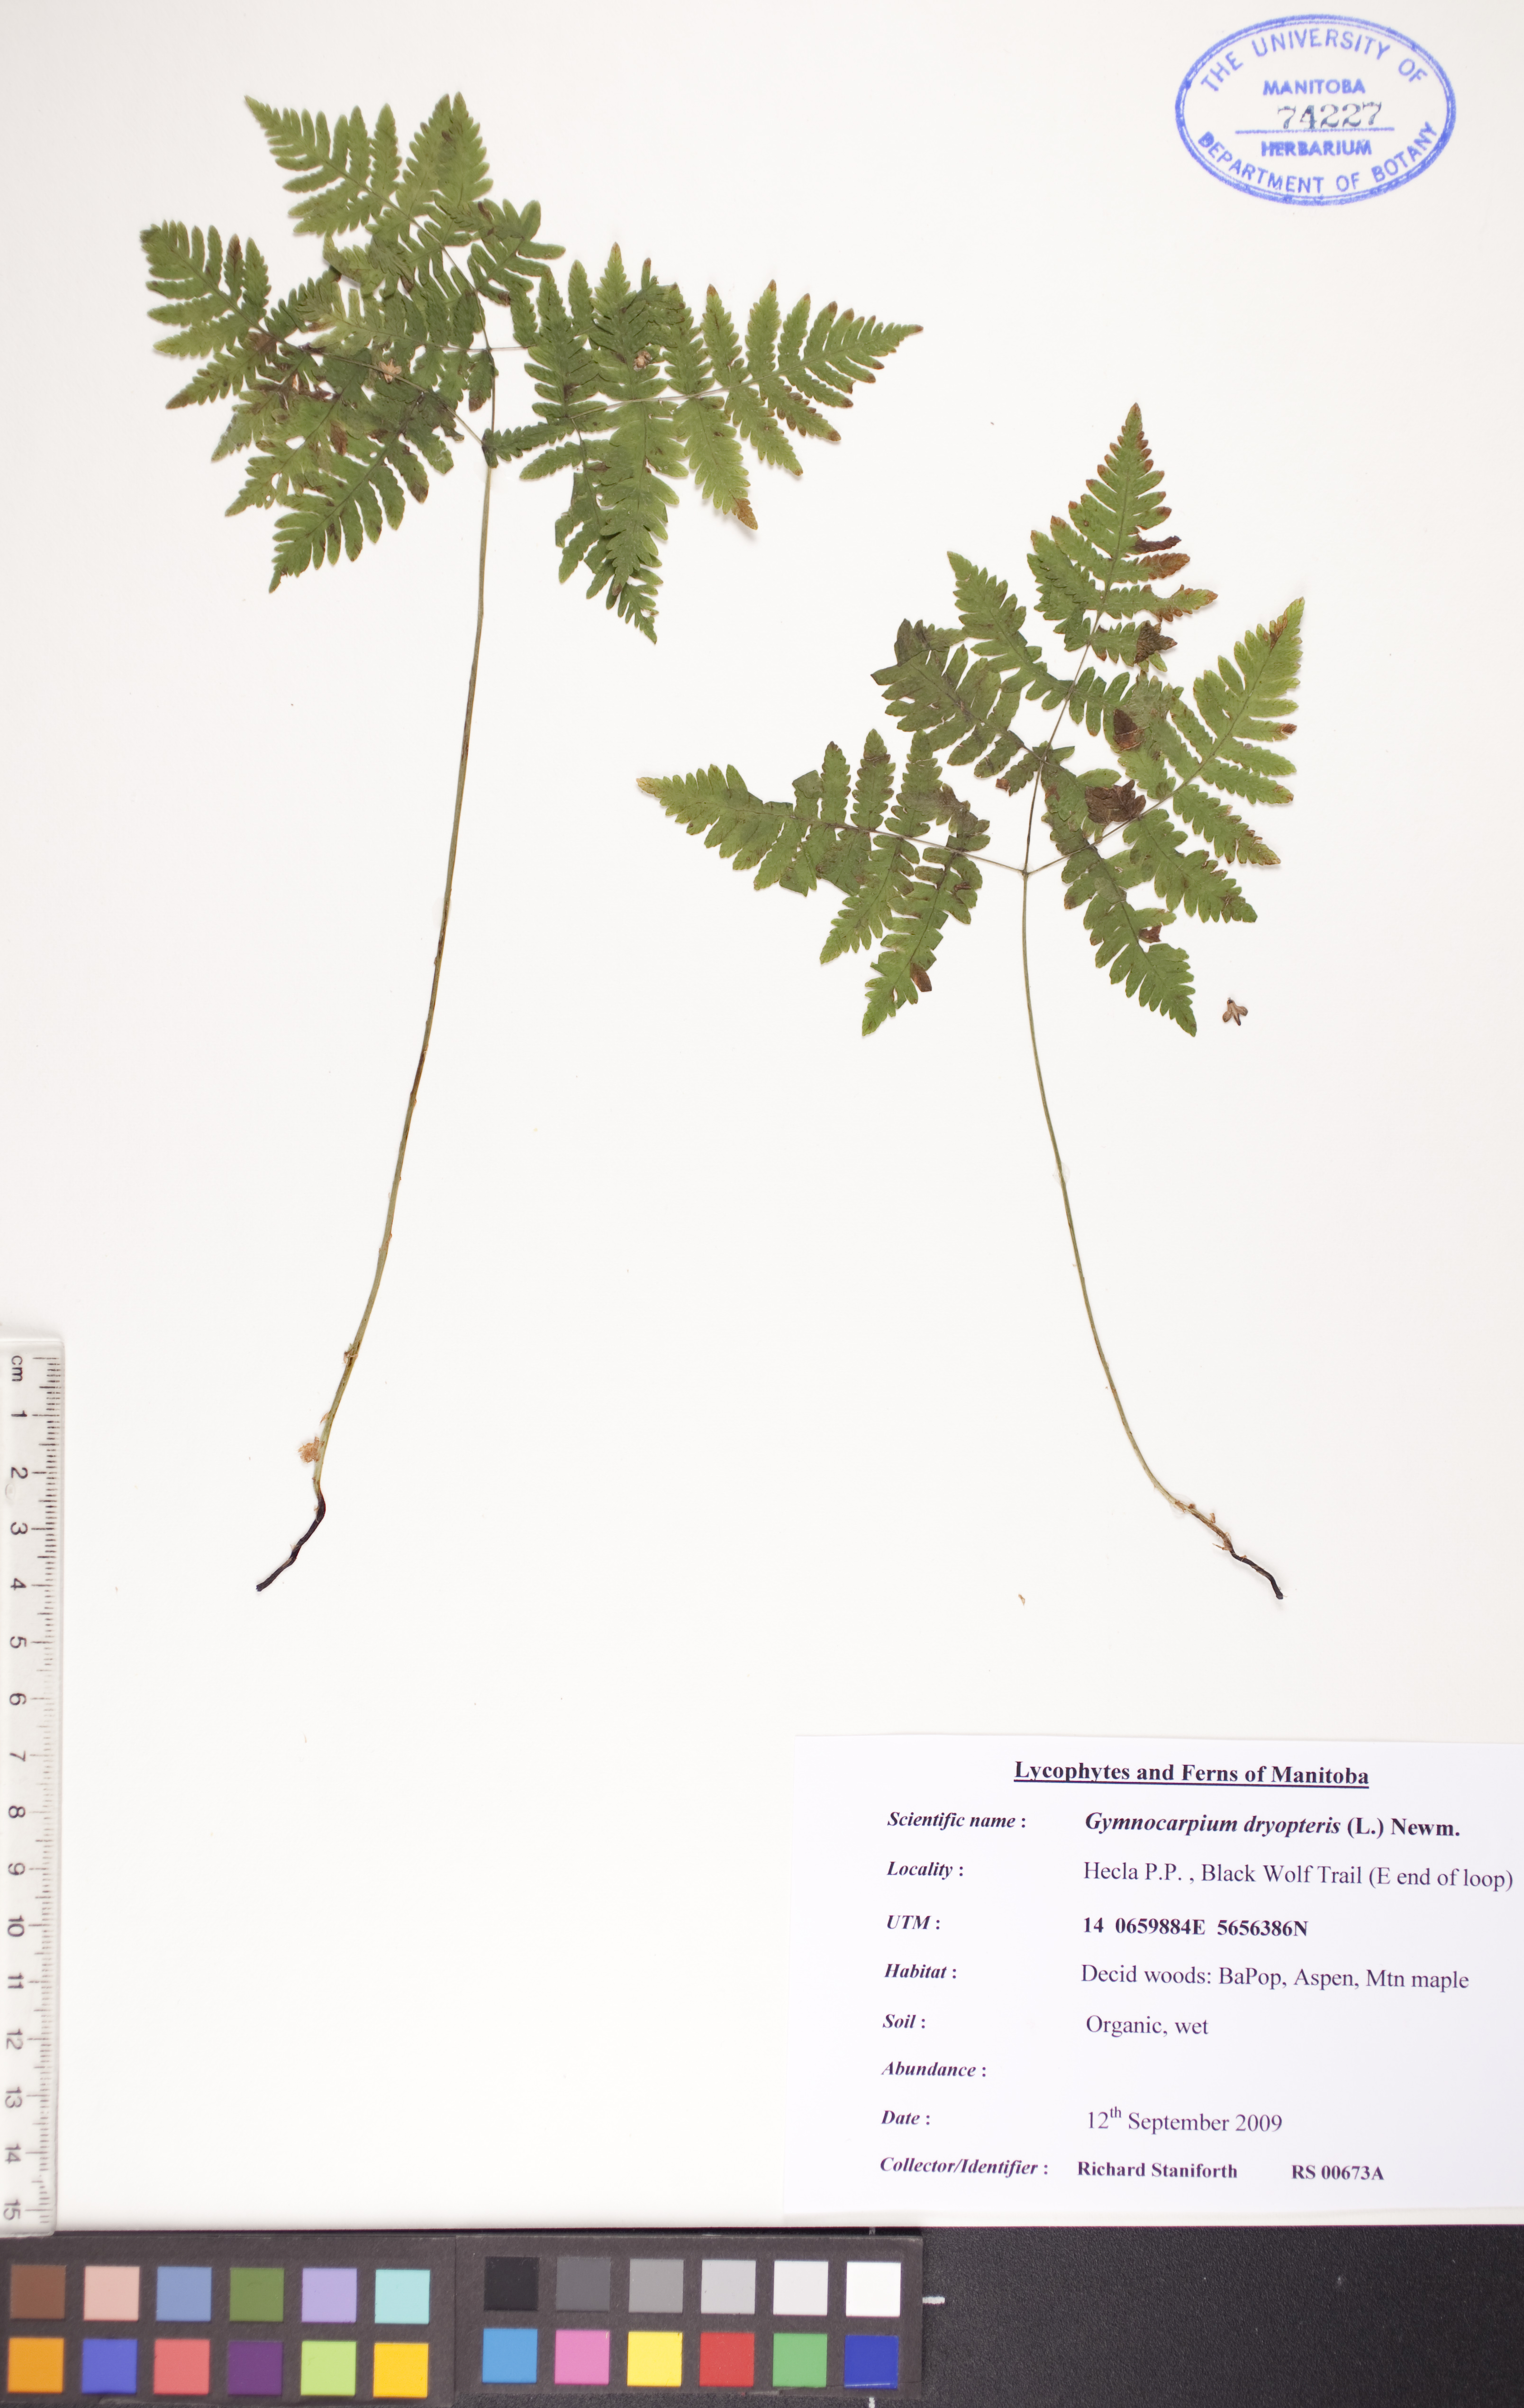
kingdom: Plantae
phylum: Tracheophyta
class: Polypodiopsida
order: Polypodiales
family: Cystopteridaceae
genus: Gymnocarpium
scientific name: Gymnocarpium dryopteris
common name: Oak fern
